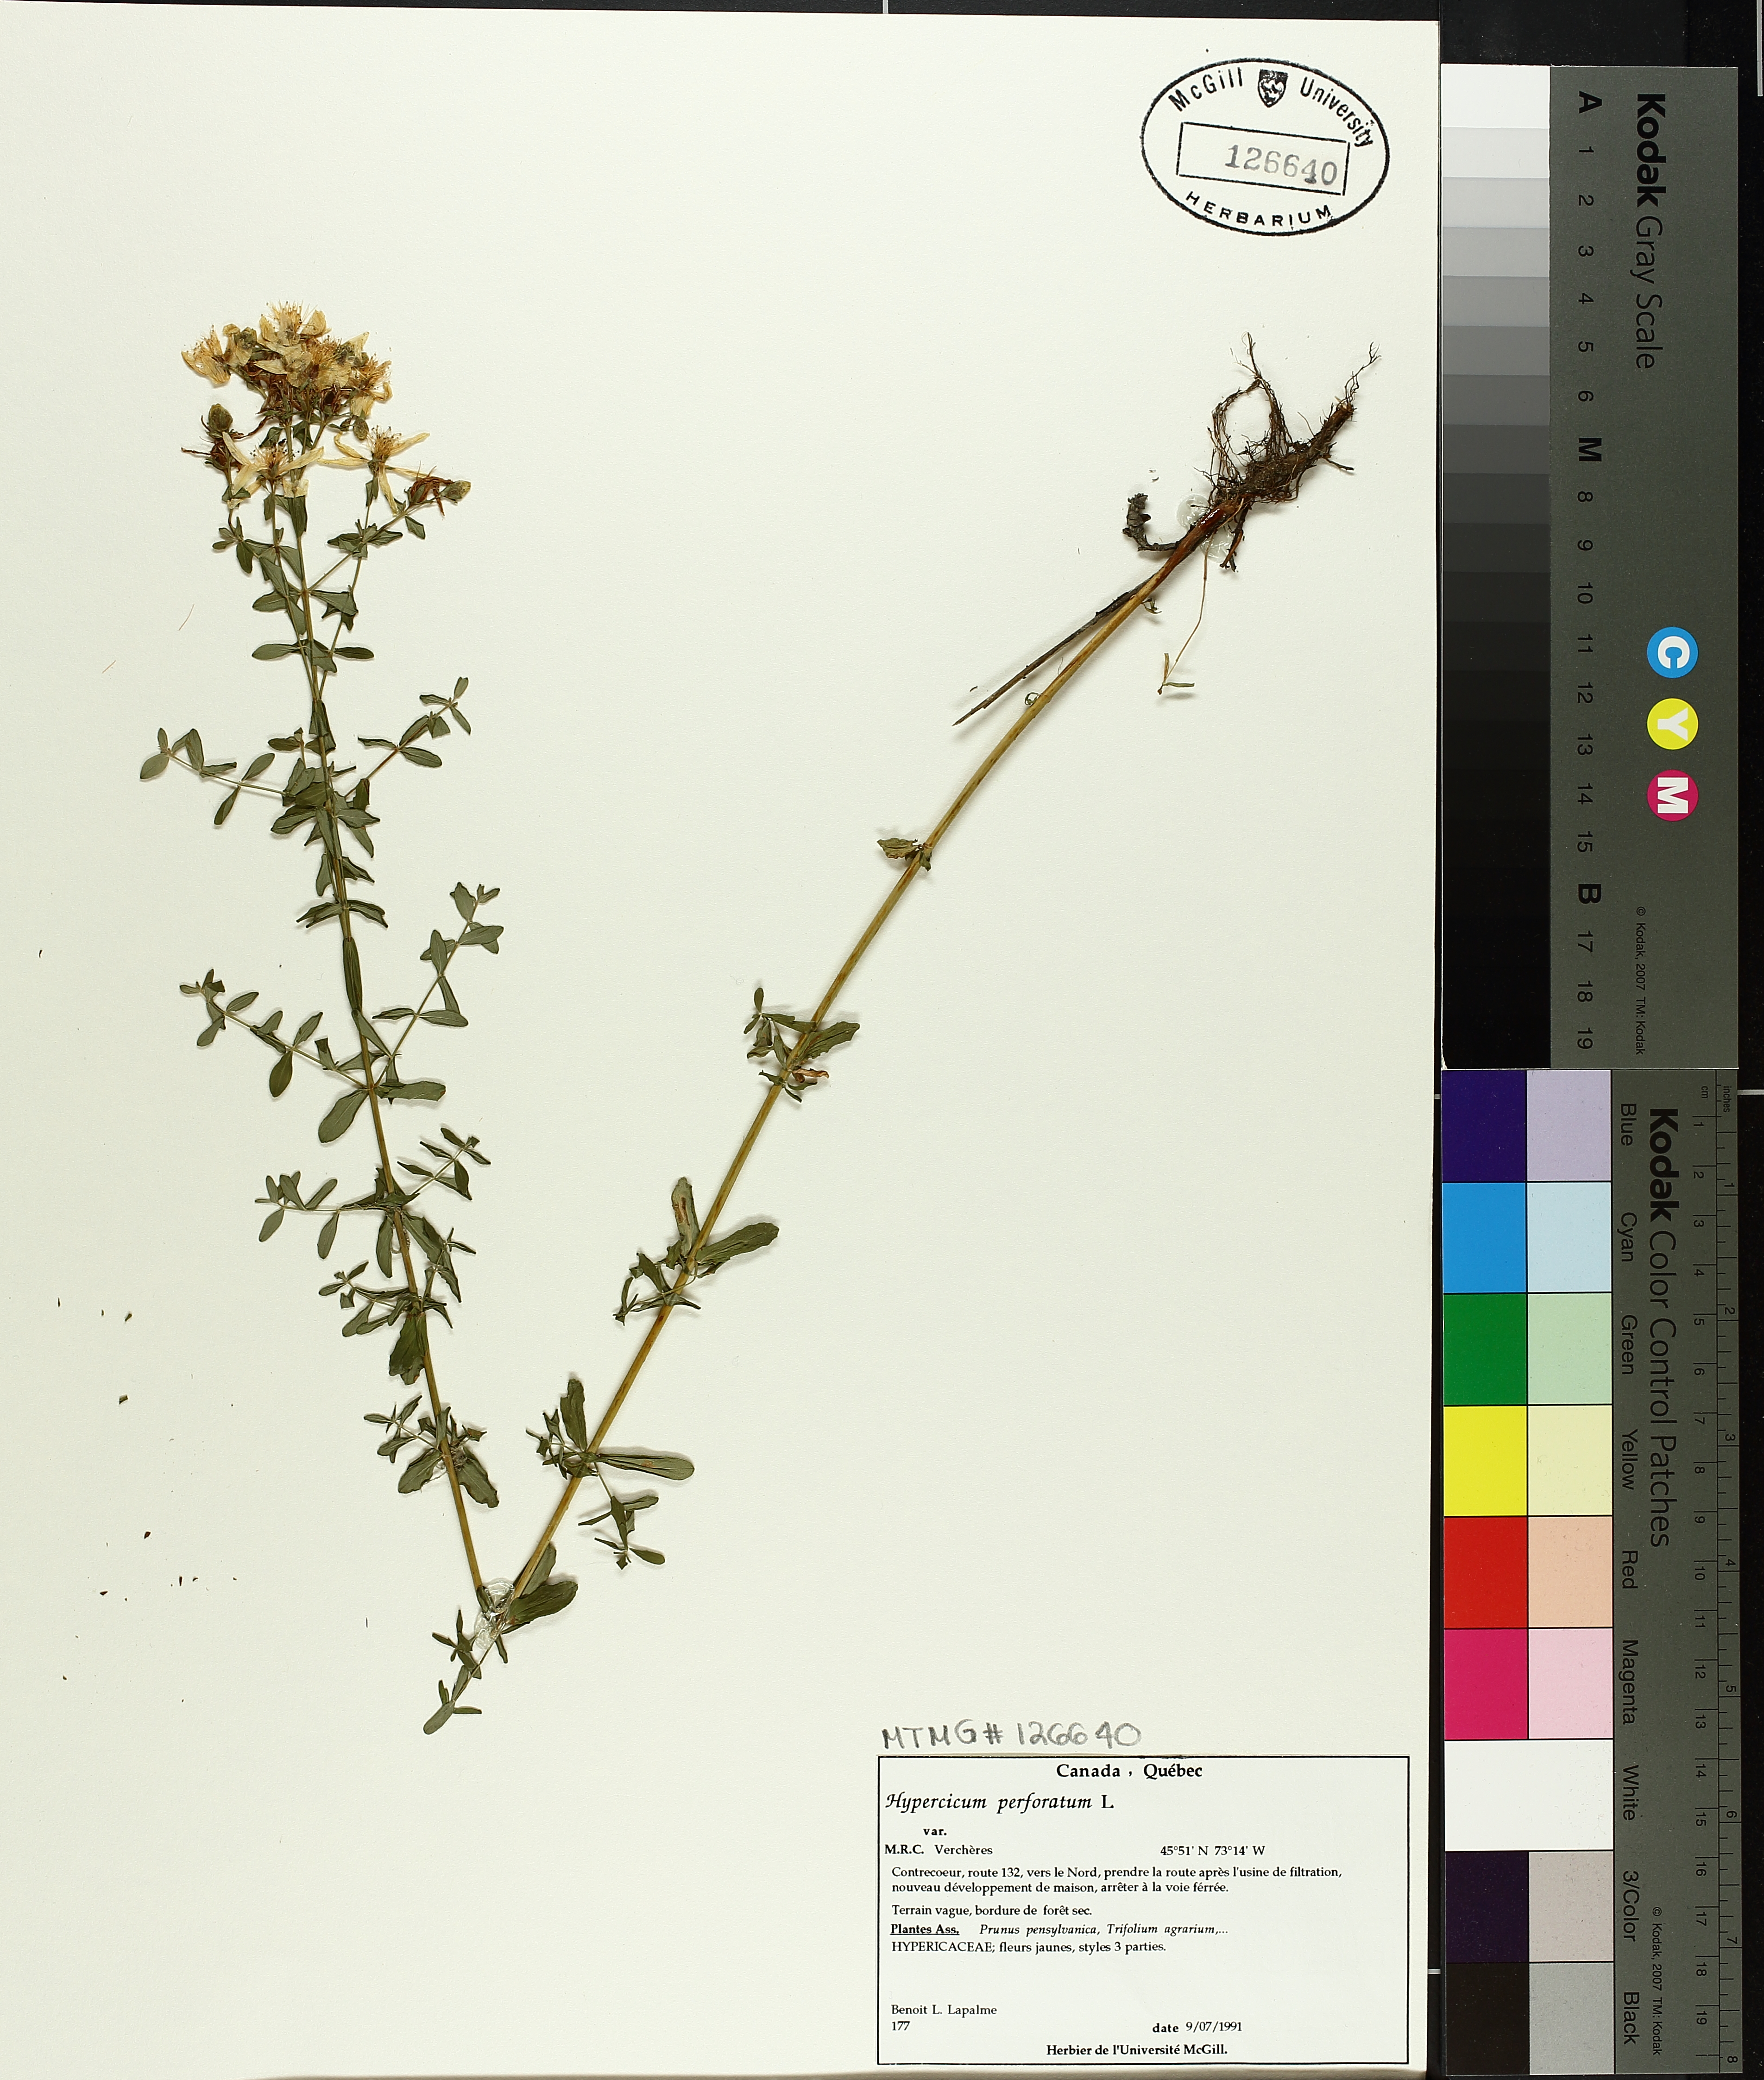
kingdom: Plantae
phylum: Tracheophyta
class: Magnoliopsida
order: Malpighiales
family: Hypericaceae
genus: Hypericum
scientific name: Hypericum perforatum
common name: Common st. johnswort
